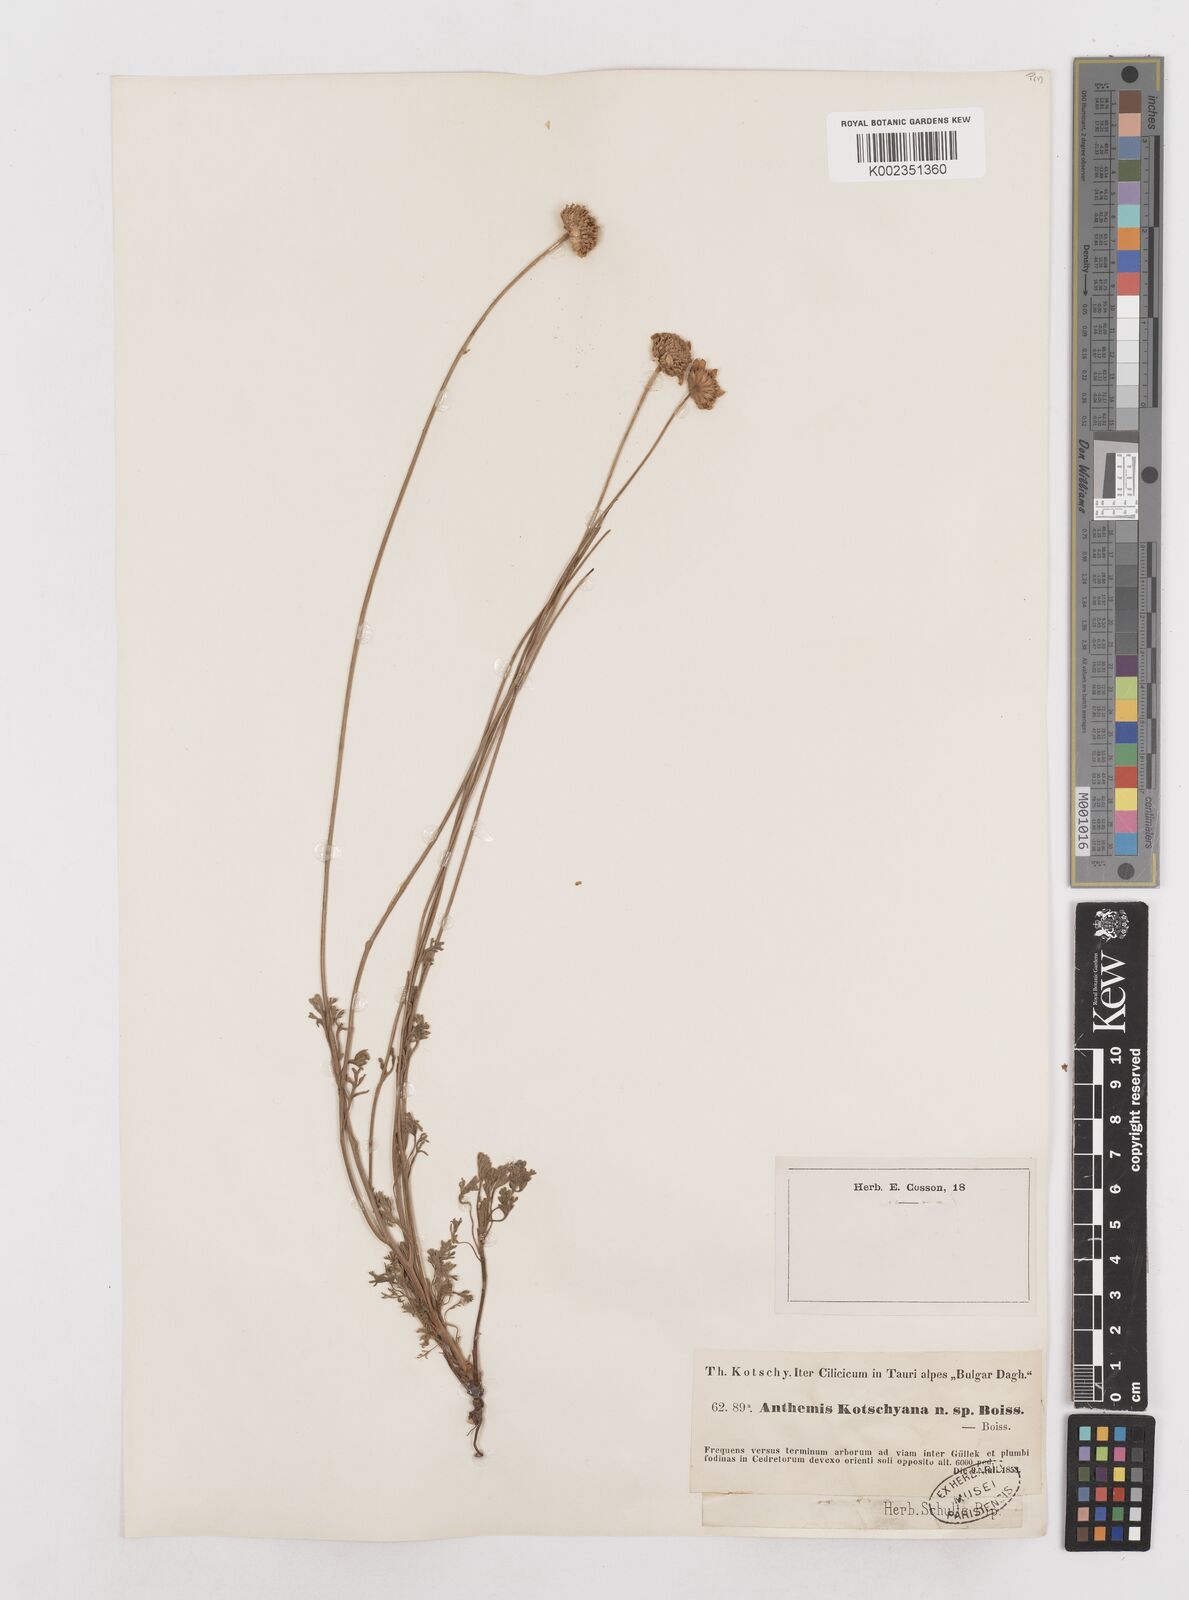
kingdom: Plantae
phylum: Tracheophyta
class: Magnoliopsida
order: Asterales
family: Asteraceae
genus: Anthemis
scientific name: Anthemis kotschyana
